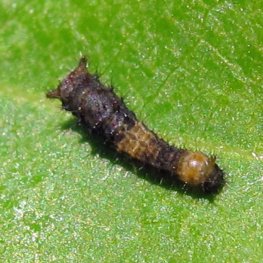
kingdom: Animalia
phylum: Arthropoda
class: Insecta
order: Lepidoptera
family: Papilionidae
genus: Papilio
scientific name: Papilio cresphontes
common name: Eastern Giant Swallowtail
